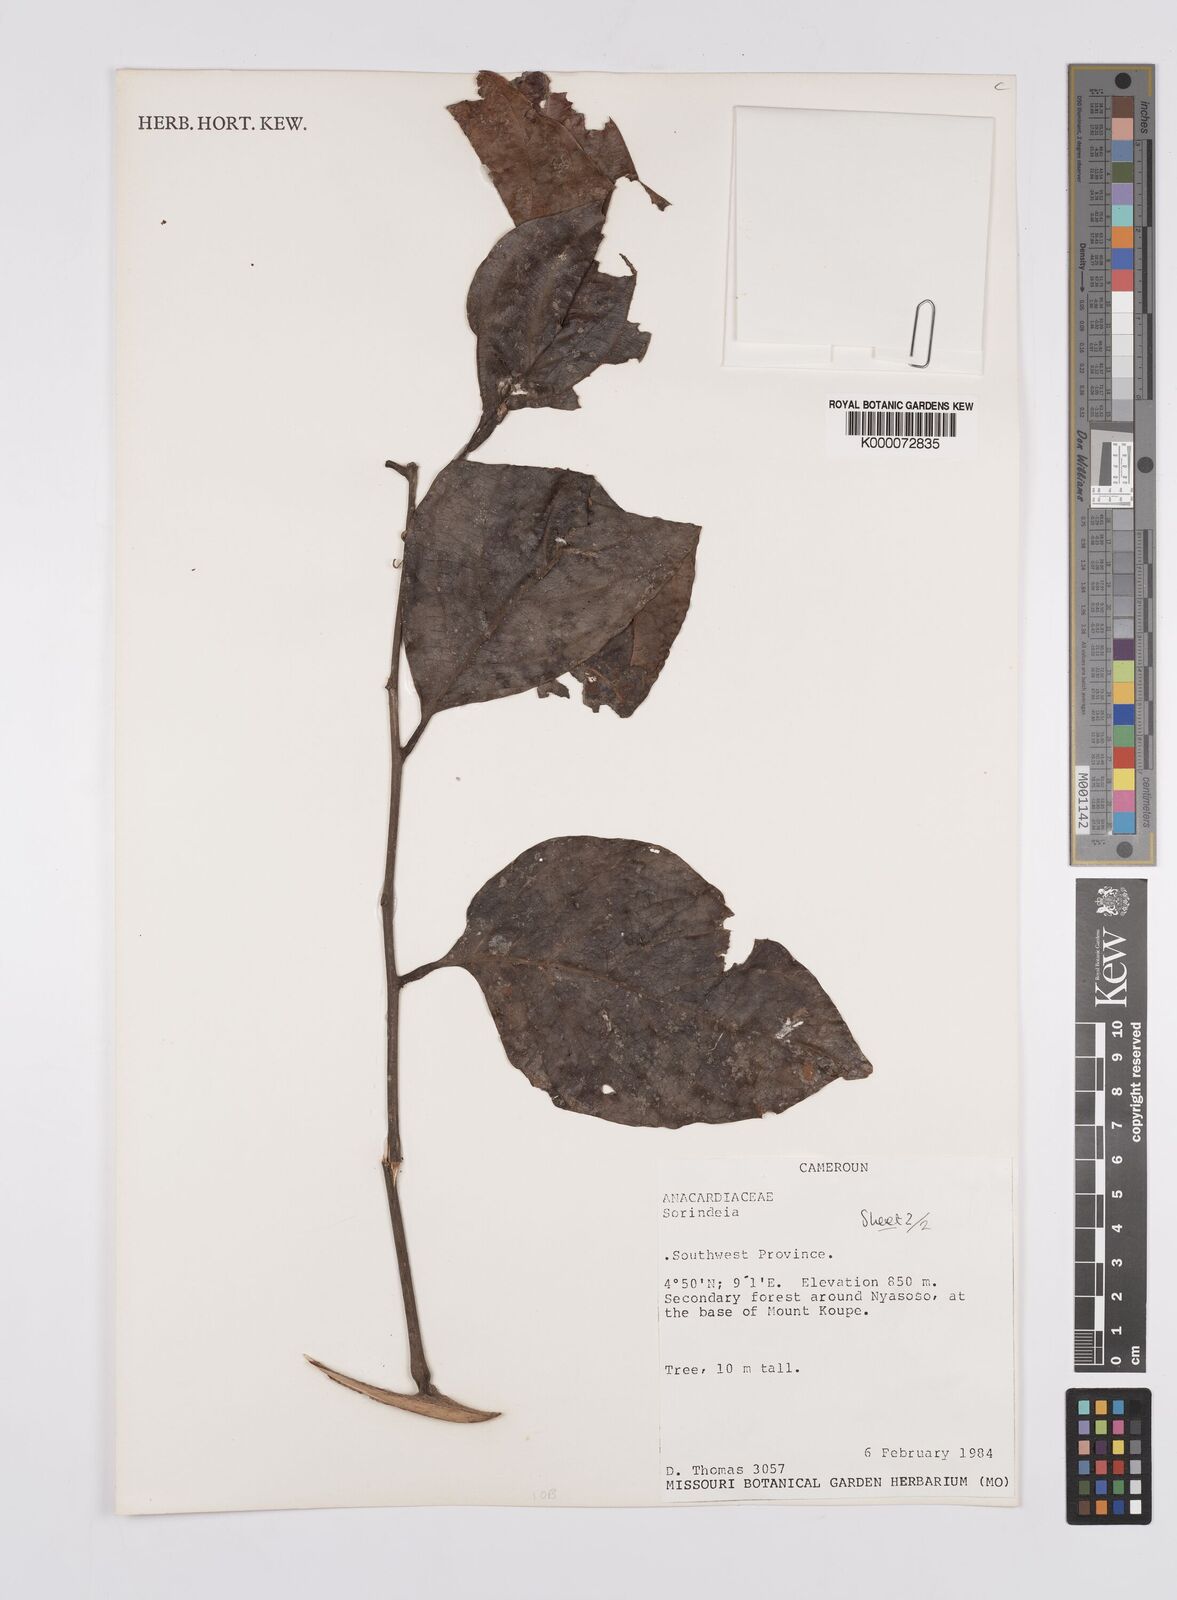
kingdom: Plantae
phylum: Tracheophyta
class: Magnoliopsida
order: Sapindales
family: Anacardiaceae
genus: Pseudospondias
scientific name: Pseudospondias
